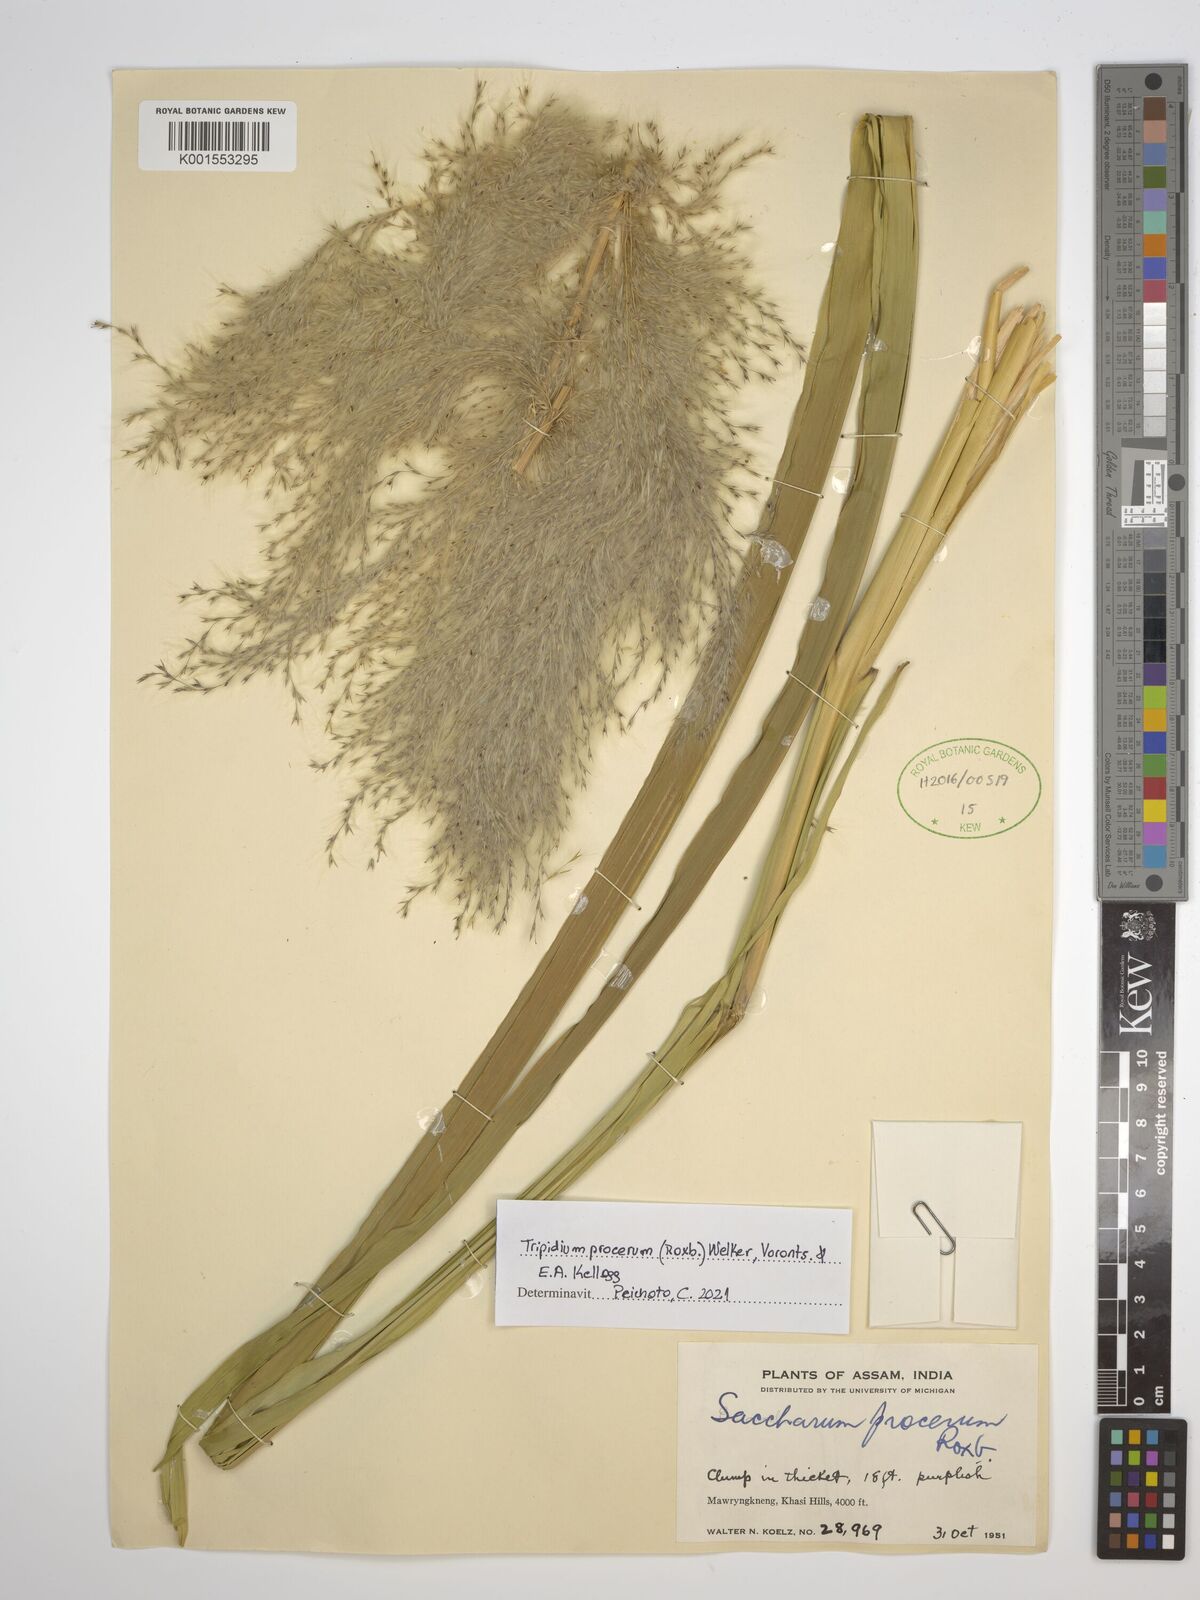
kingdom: Plantae
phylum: Tracheophyta
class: Liliopsida
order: Poales
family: Poaceae
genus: Tripidium
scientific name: Tripidium procerum
